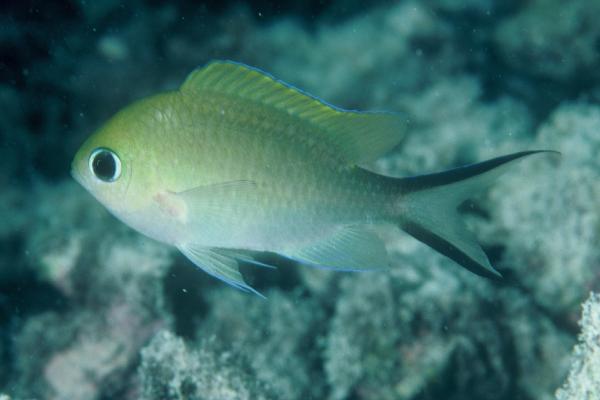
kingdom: Animalia
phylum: Chordata
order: Perciformes
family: Pomacentridae
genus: Chromis
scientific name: Chromis nitida
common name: Barrier reef chromis
